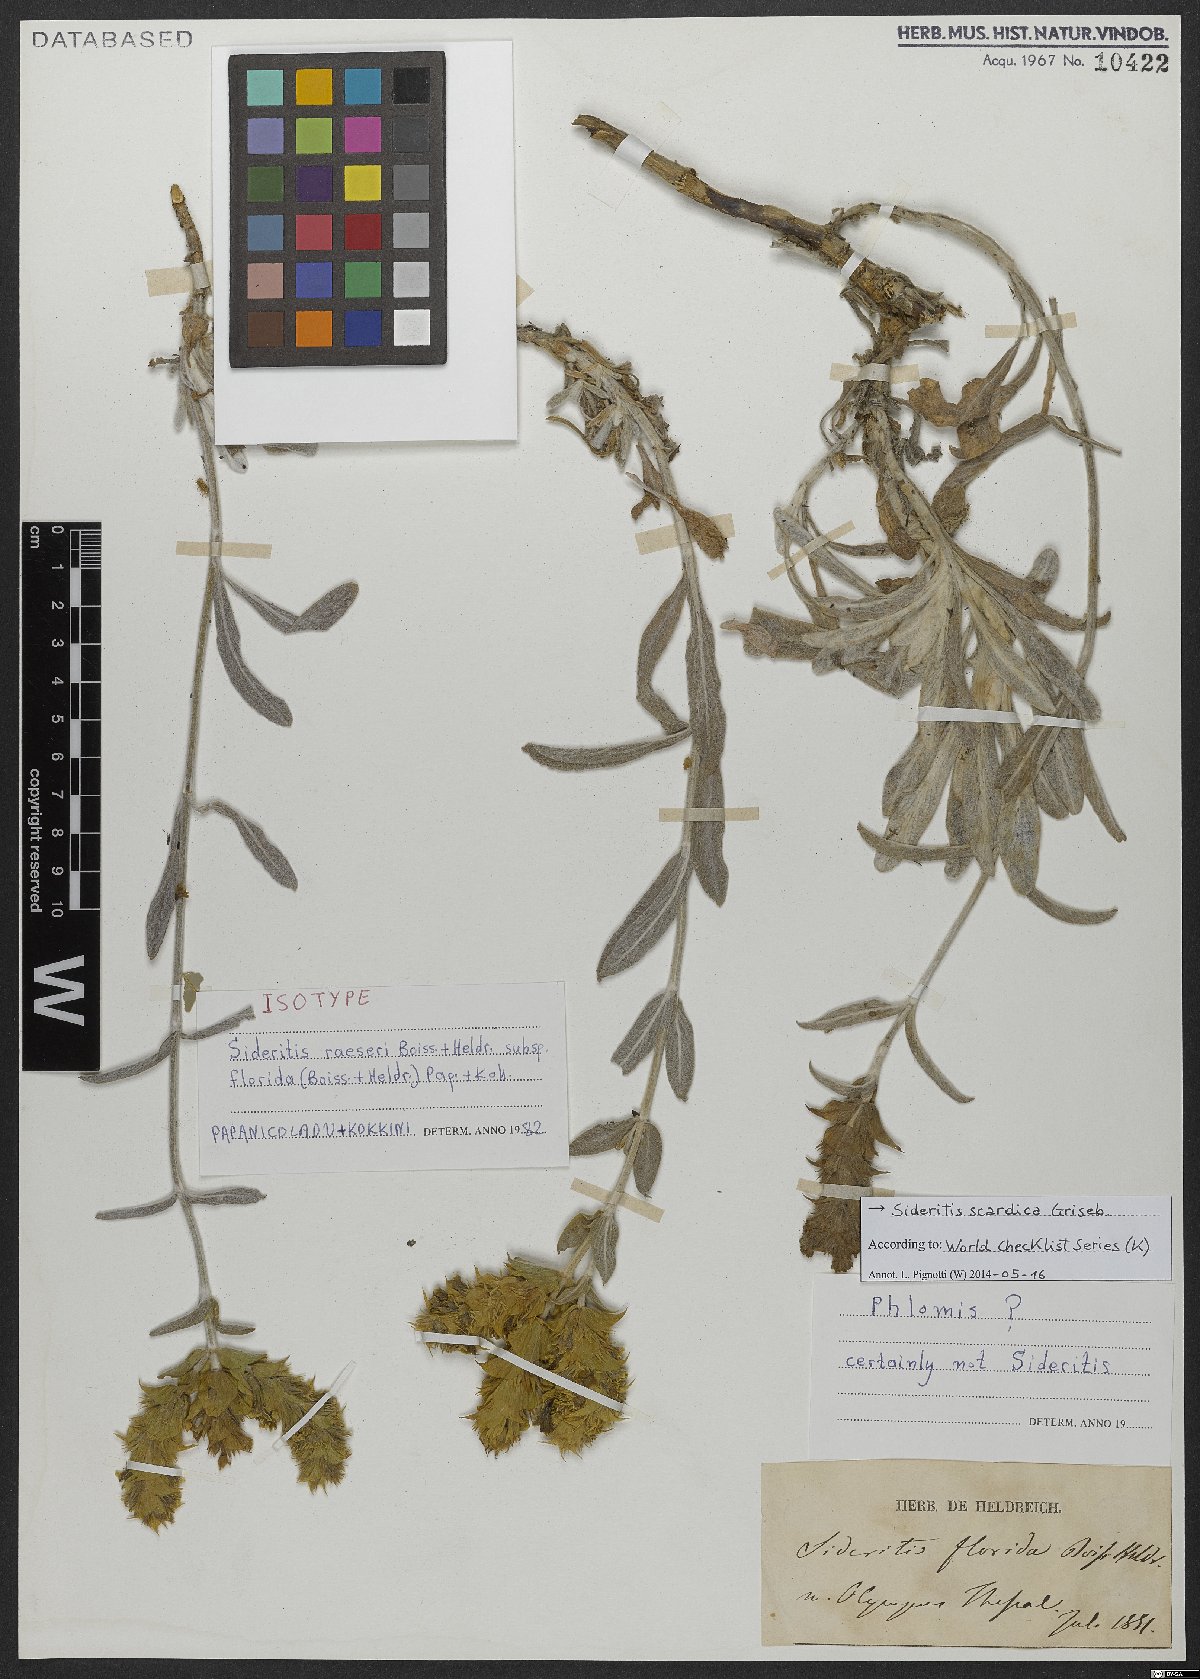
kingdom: Plantae
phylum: Tracheophyta
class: Magnoliopsida
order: Lamiales
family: Lamiaceae
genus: Sideritis
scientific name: Sideritis scardica
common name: Greek mountain tea
